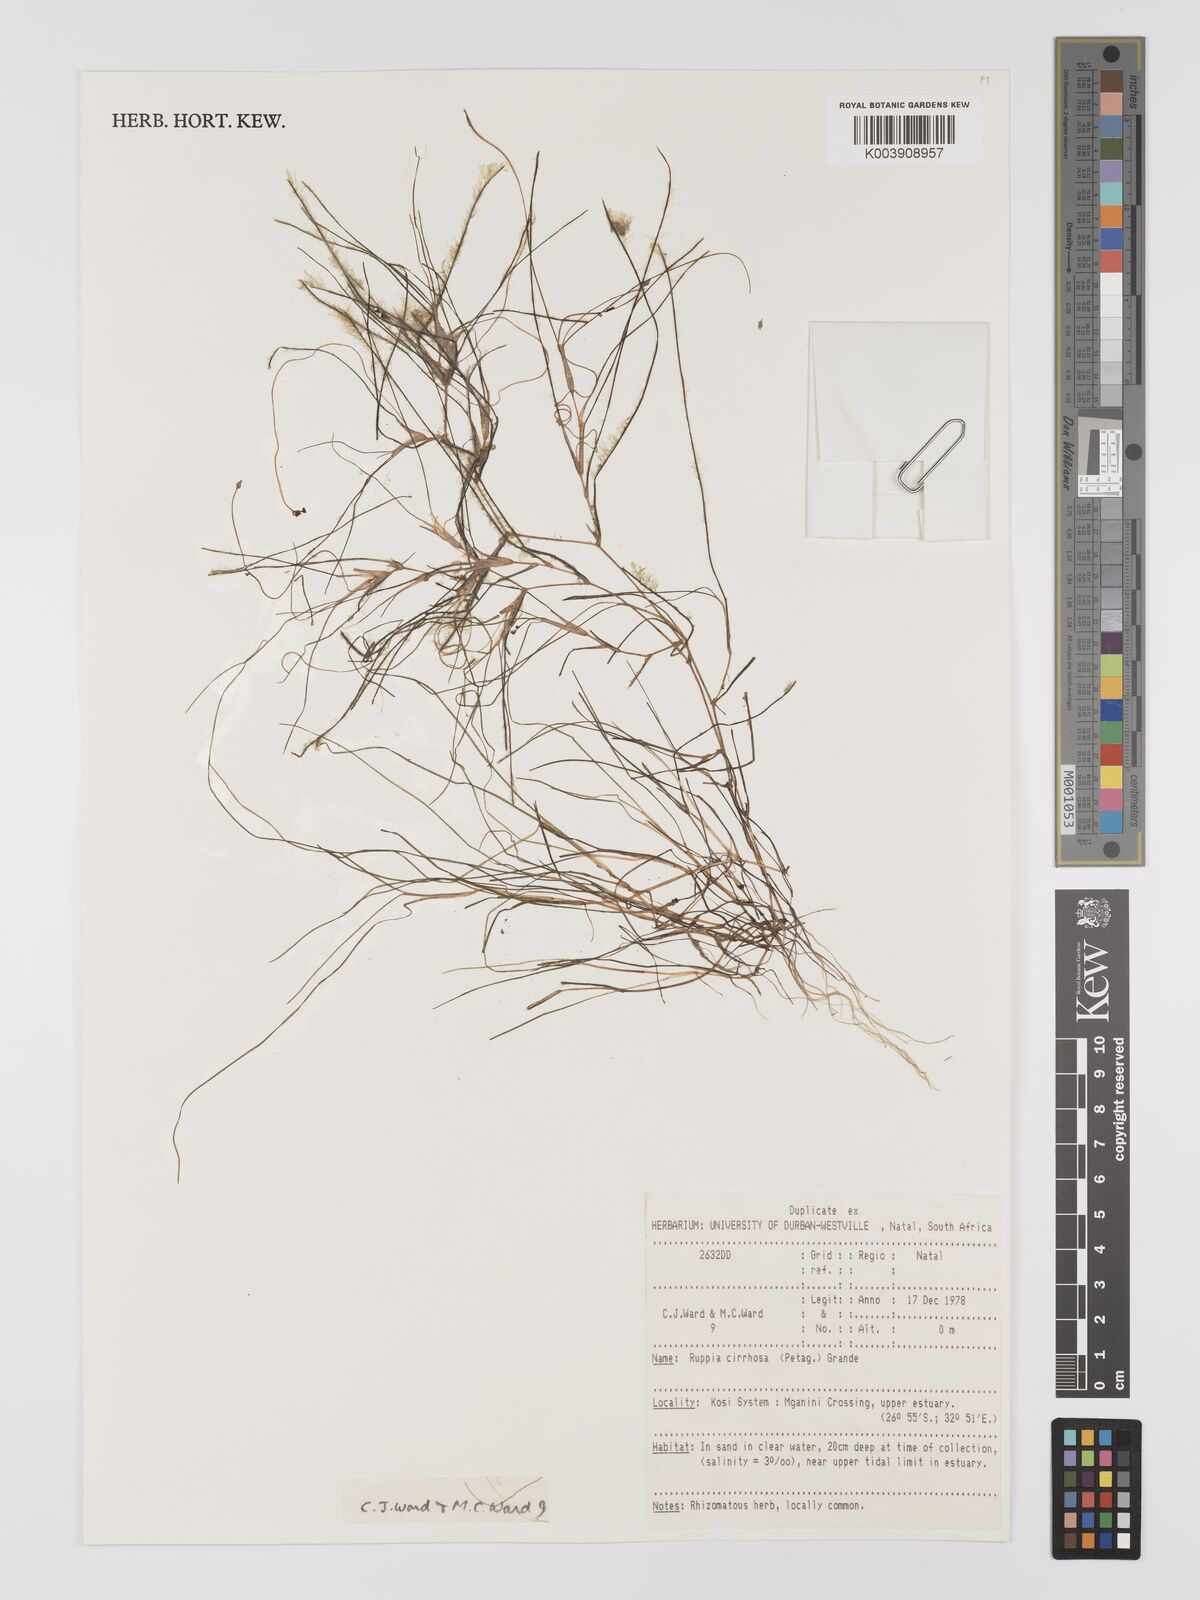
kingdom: Plantae
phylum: Tracheophyta
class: Liliopsida
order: Alismatales
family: Ruppiaceae
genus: Ruppia
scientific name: Ruppia cirrhosa
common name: Spiral tasselweed
